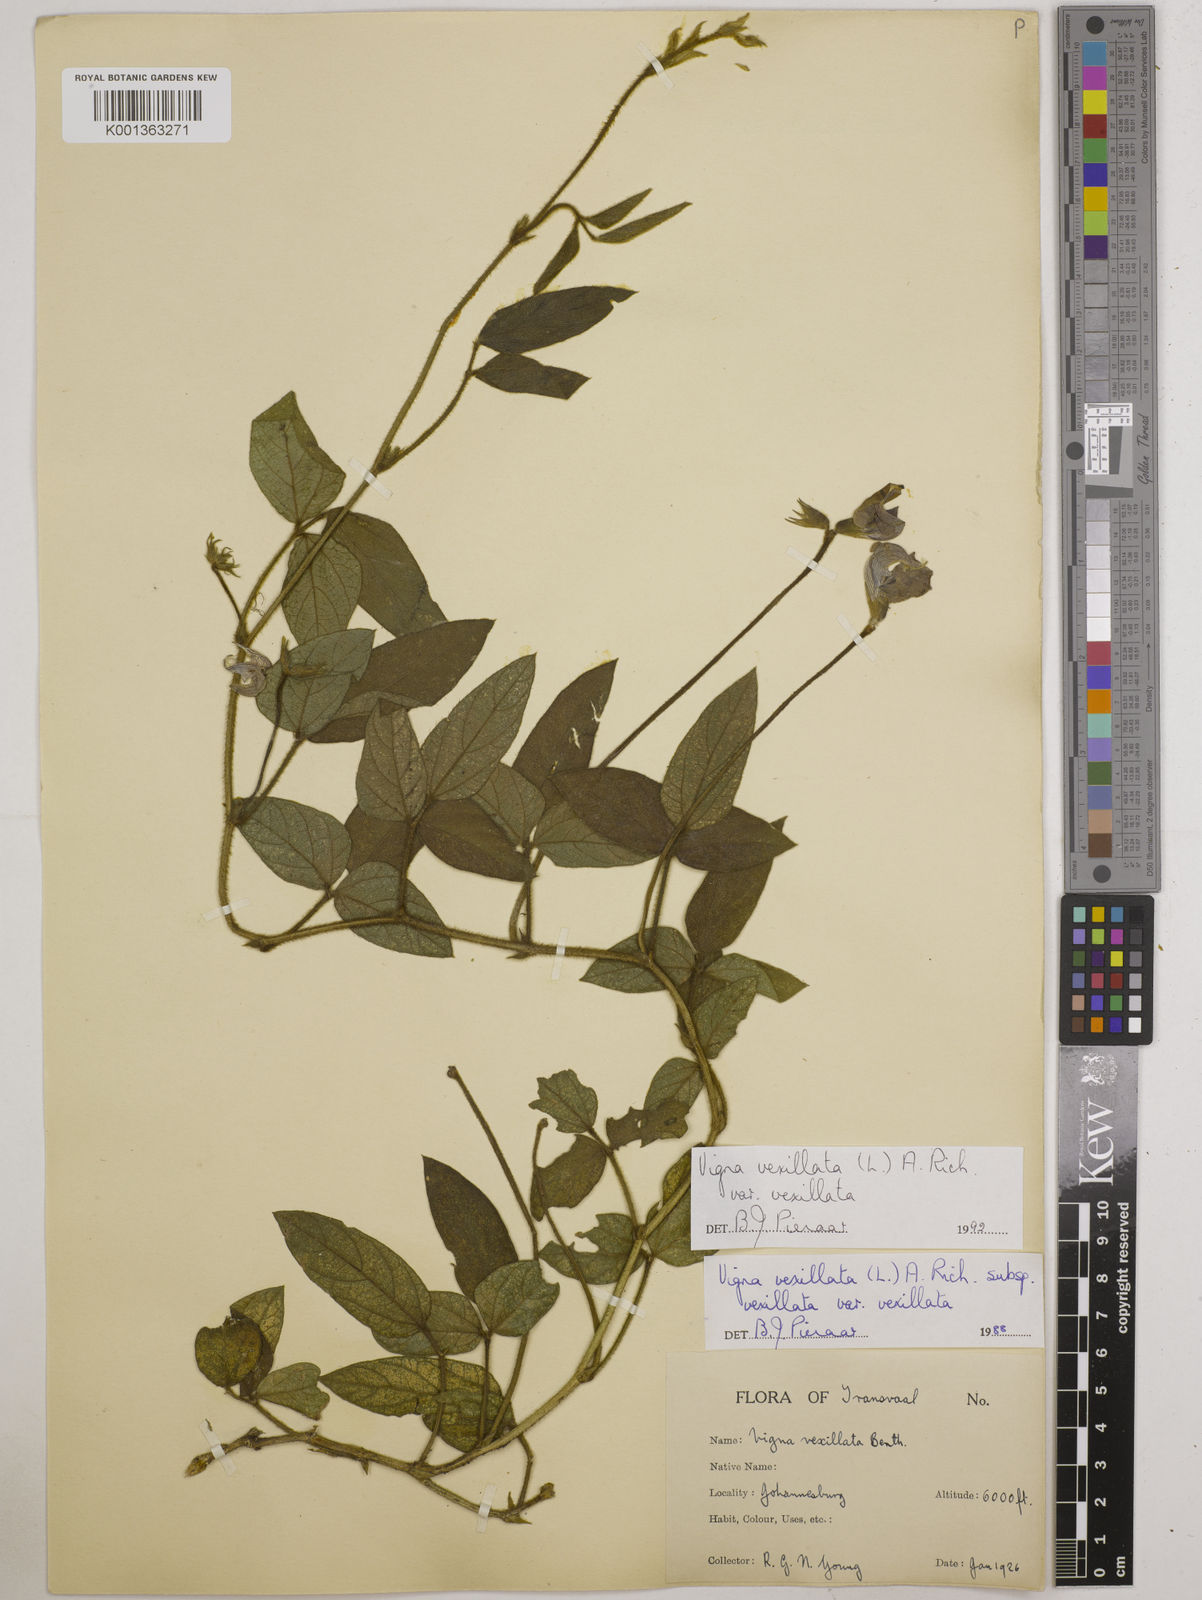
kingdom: Plantae
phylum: Tracheophyta
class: Magnoliopsida
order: Fabales
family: Fabaceae
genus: Vigna
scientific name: Vigna
